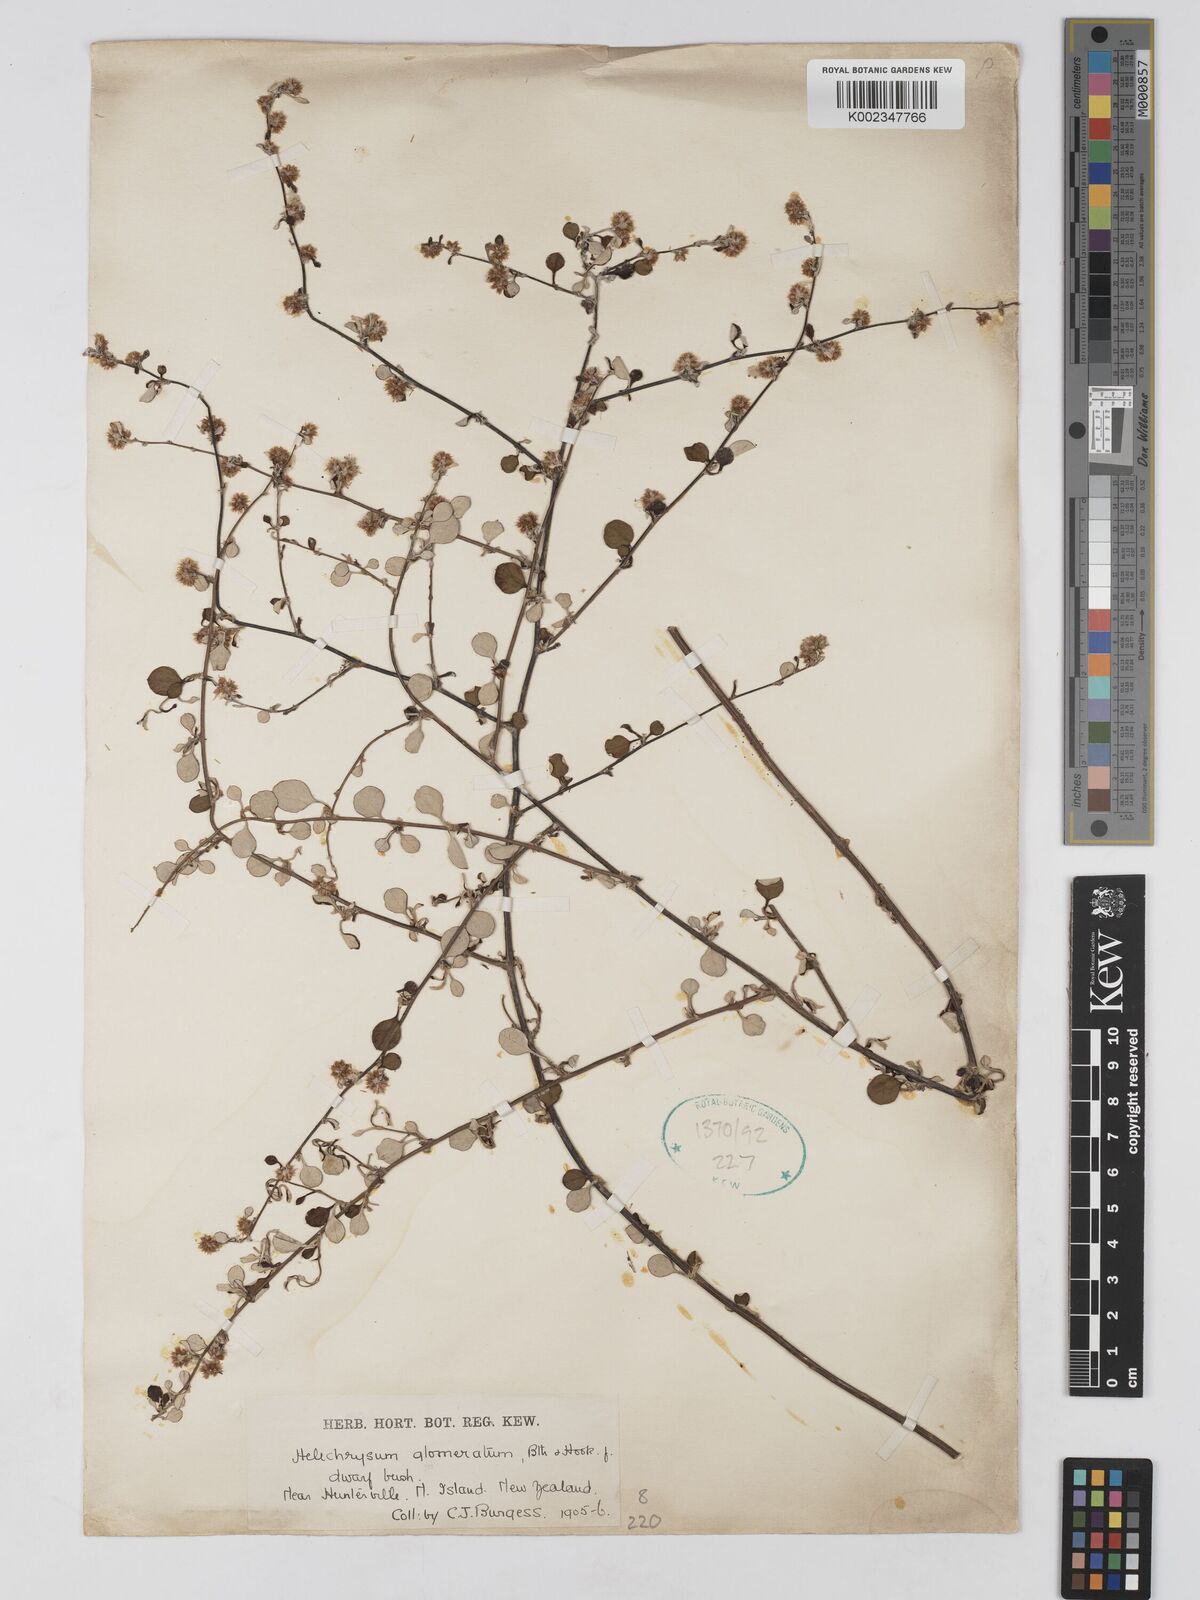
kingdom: Plantae
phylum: Tracheophyta
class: Magnoliopsida
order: Asterales
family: Asteraceae
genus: Ozothamnus
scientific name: Ozothamnus glomeratus
